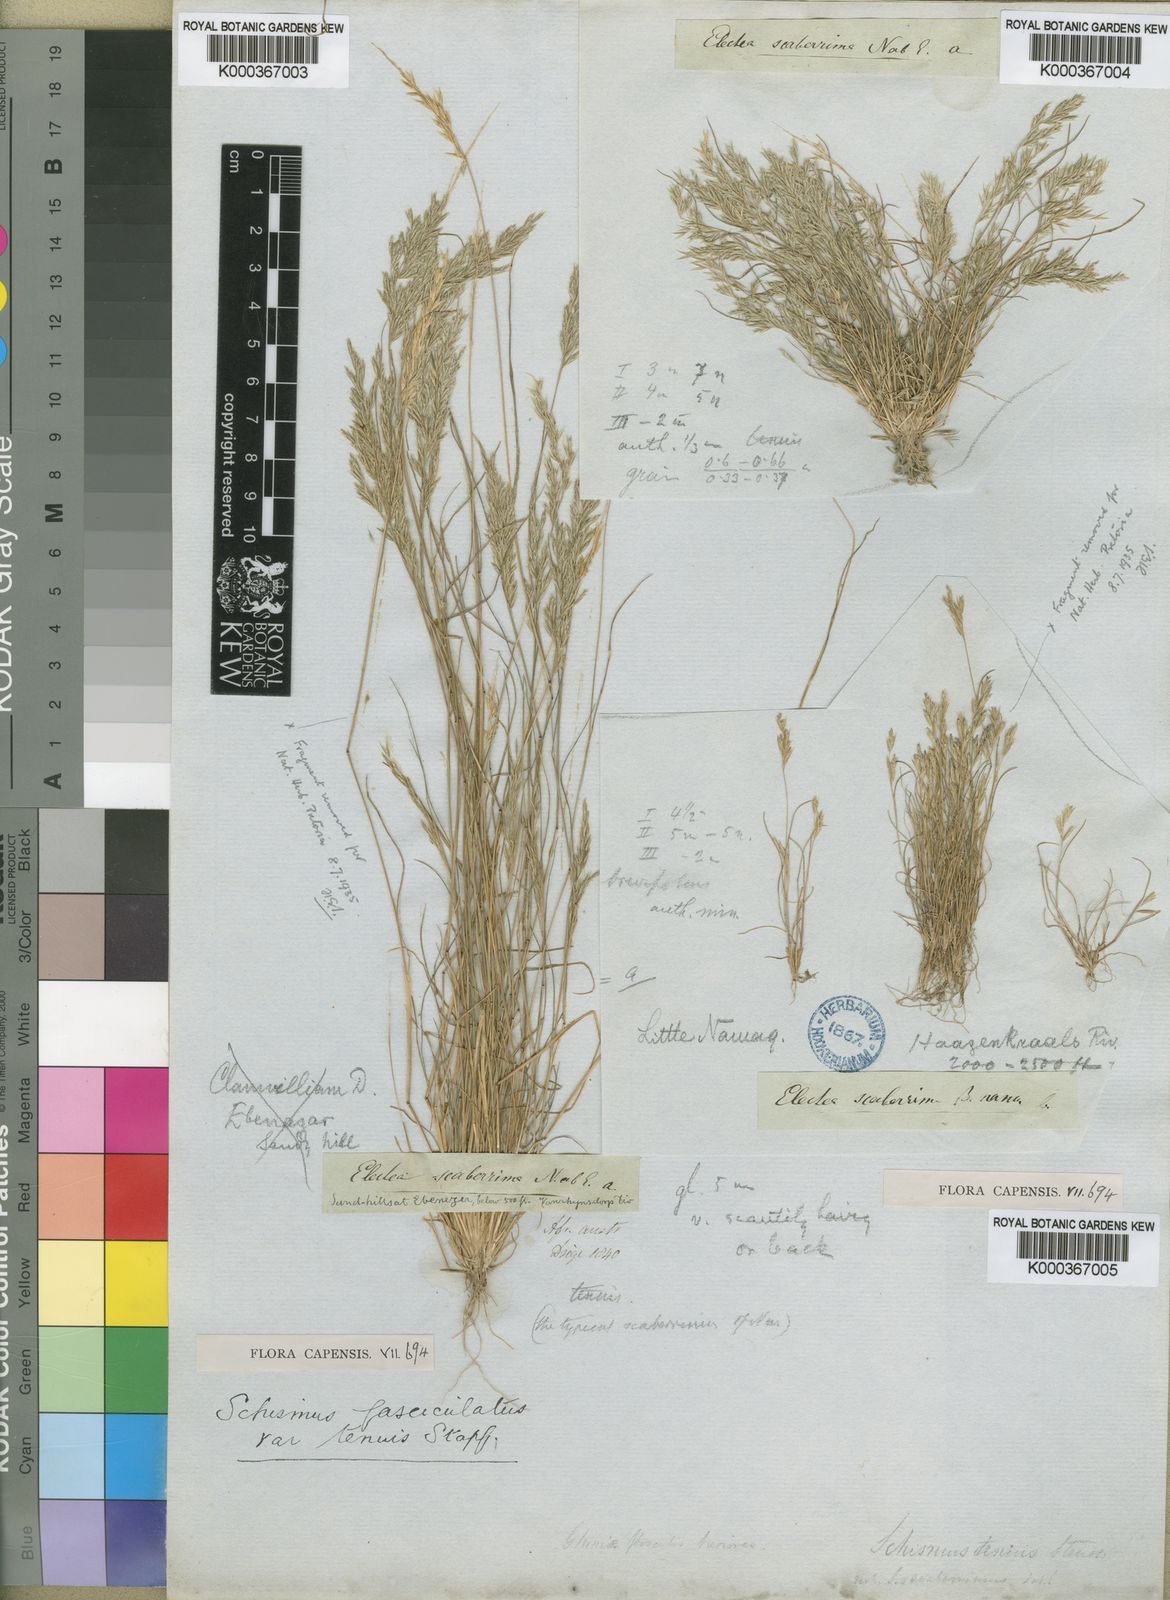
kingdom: Plantae
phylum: Tracheophyta
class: Liliopsida
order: Poales
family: Poaceae
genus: Schismus
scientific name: Schismus barbatus
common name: Kelch-grass
